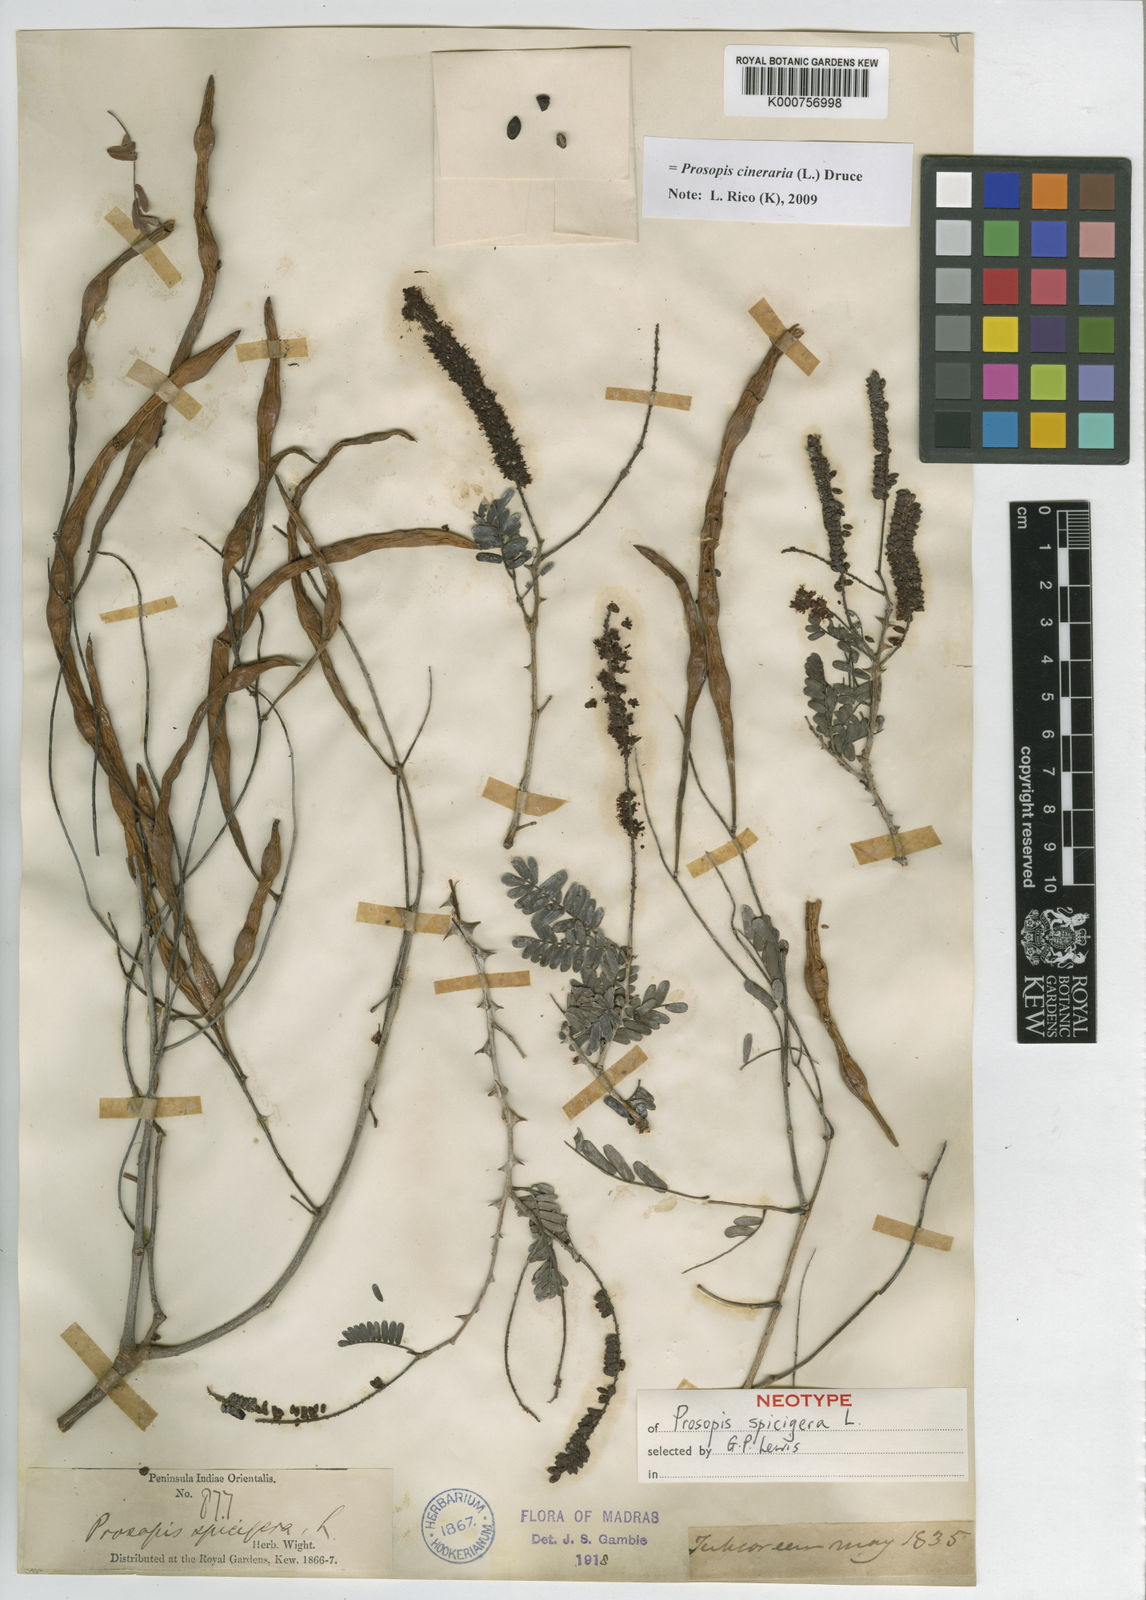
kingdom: Plantae
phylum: Tracheophyta
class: Magnoliopsida
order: Fabales
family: Fabaceae
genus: Prosopis
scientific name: Prosopis cineraria
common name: Jandi
